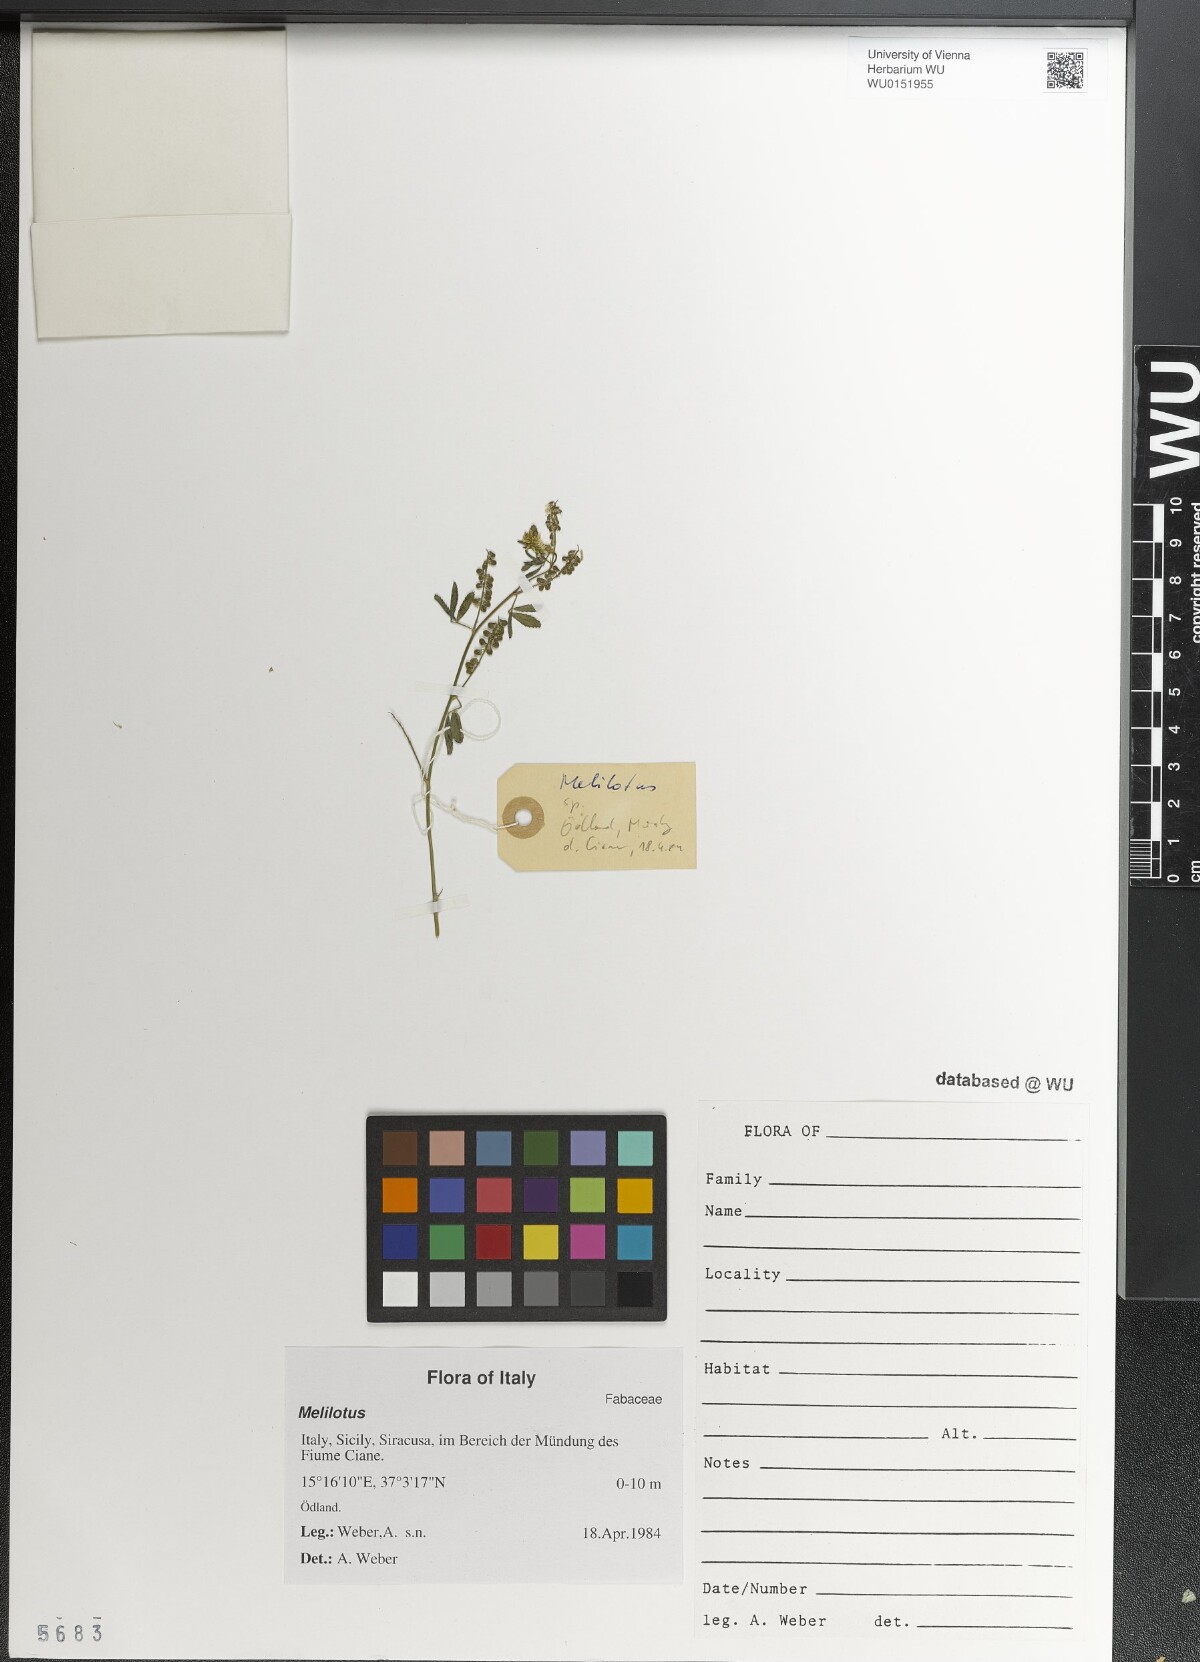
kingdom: Plantae
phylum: Tracheophyta
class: Magnoliopsida
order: Fabales
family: Fabaceae
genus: Melilotus
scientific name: Melilotus
